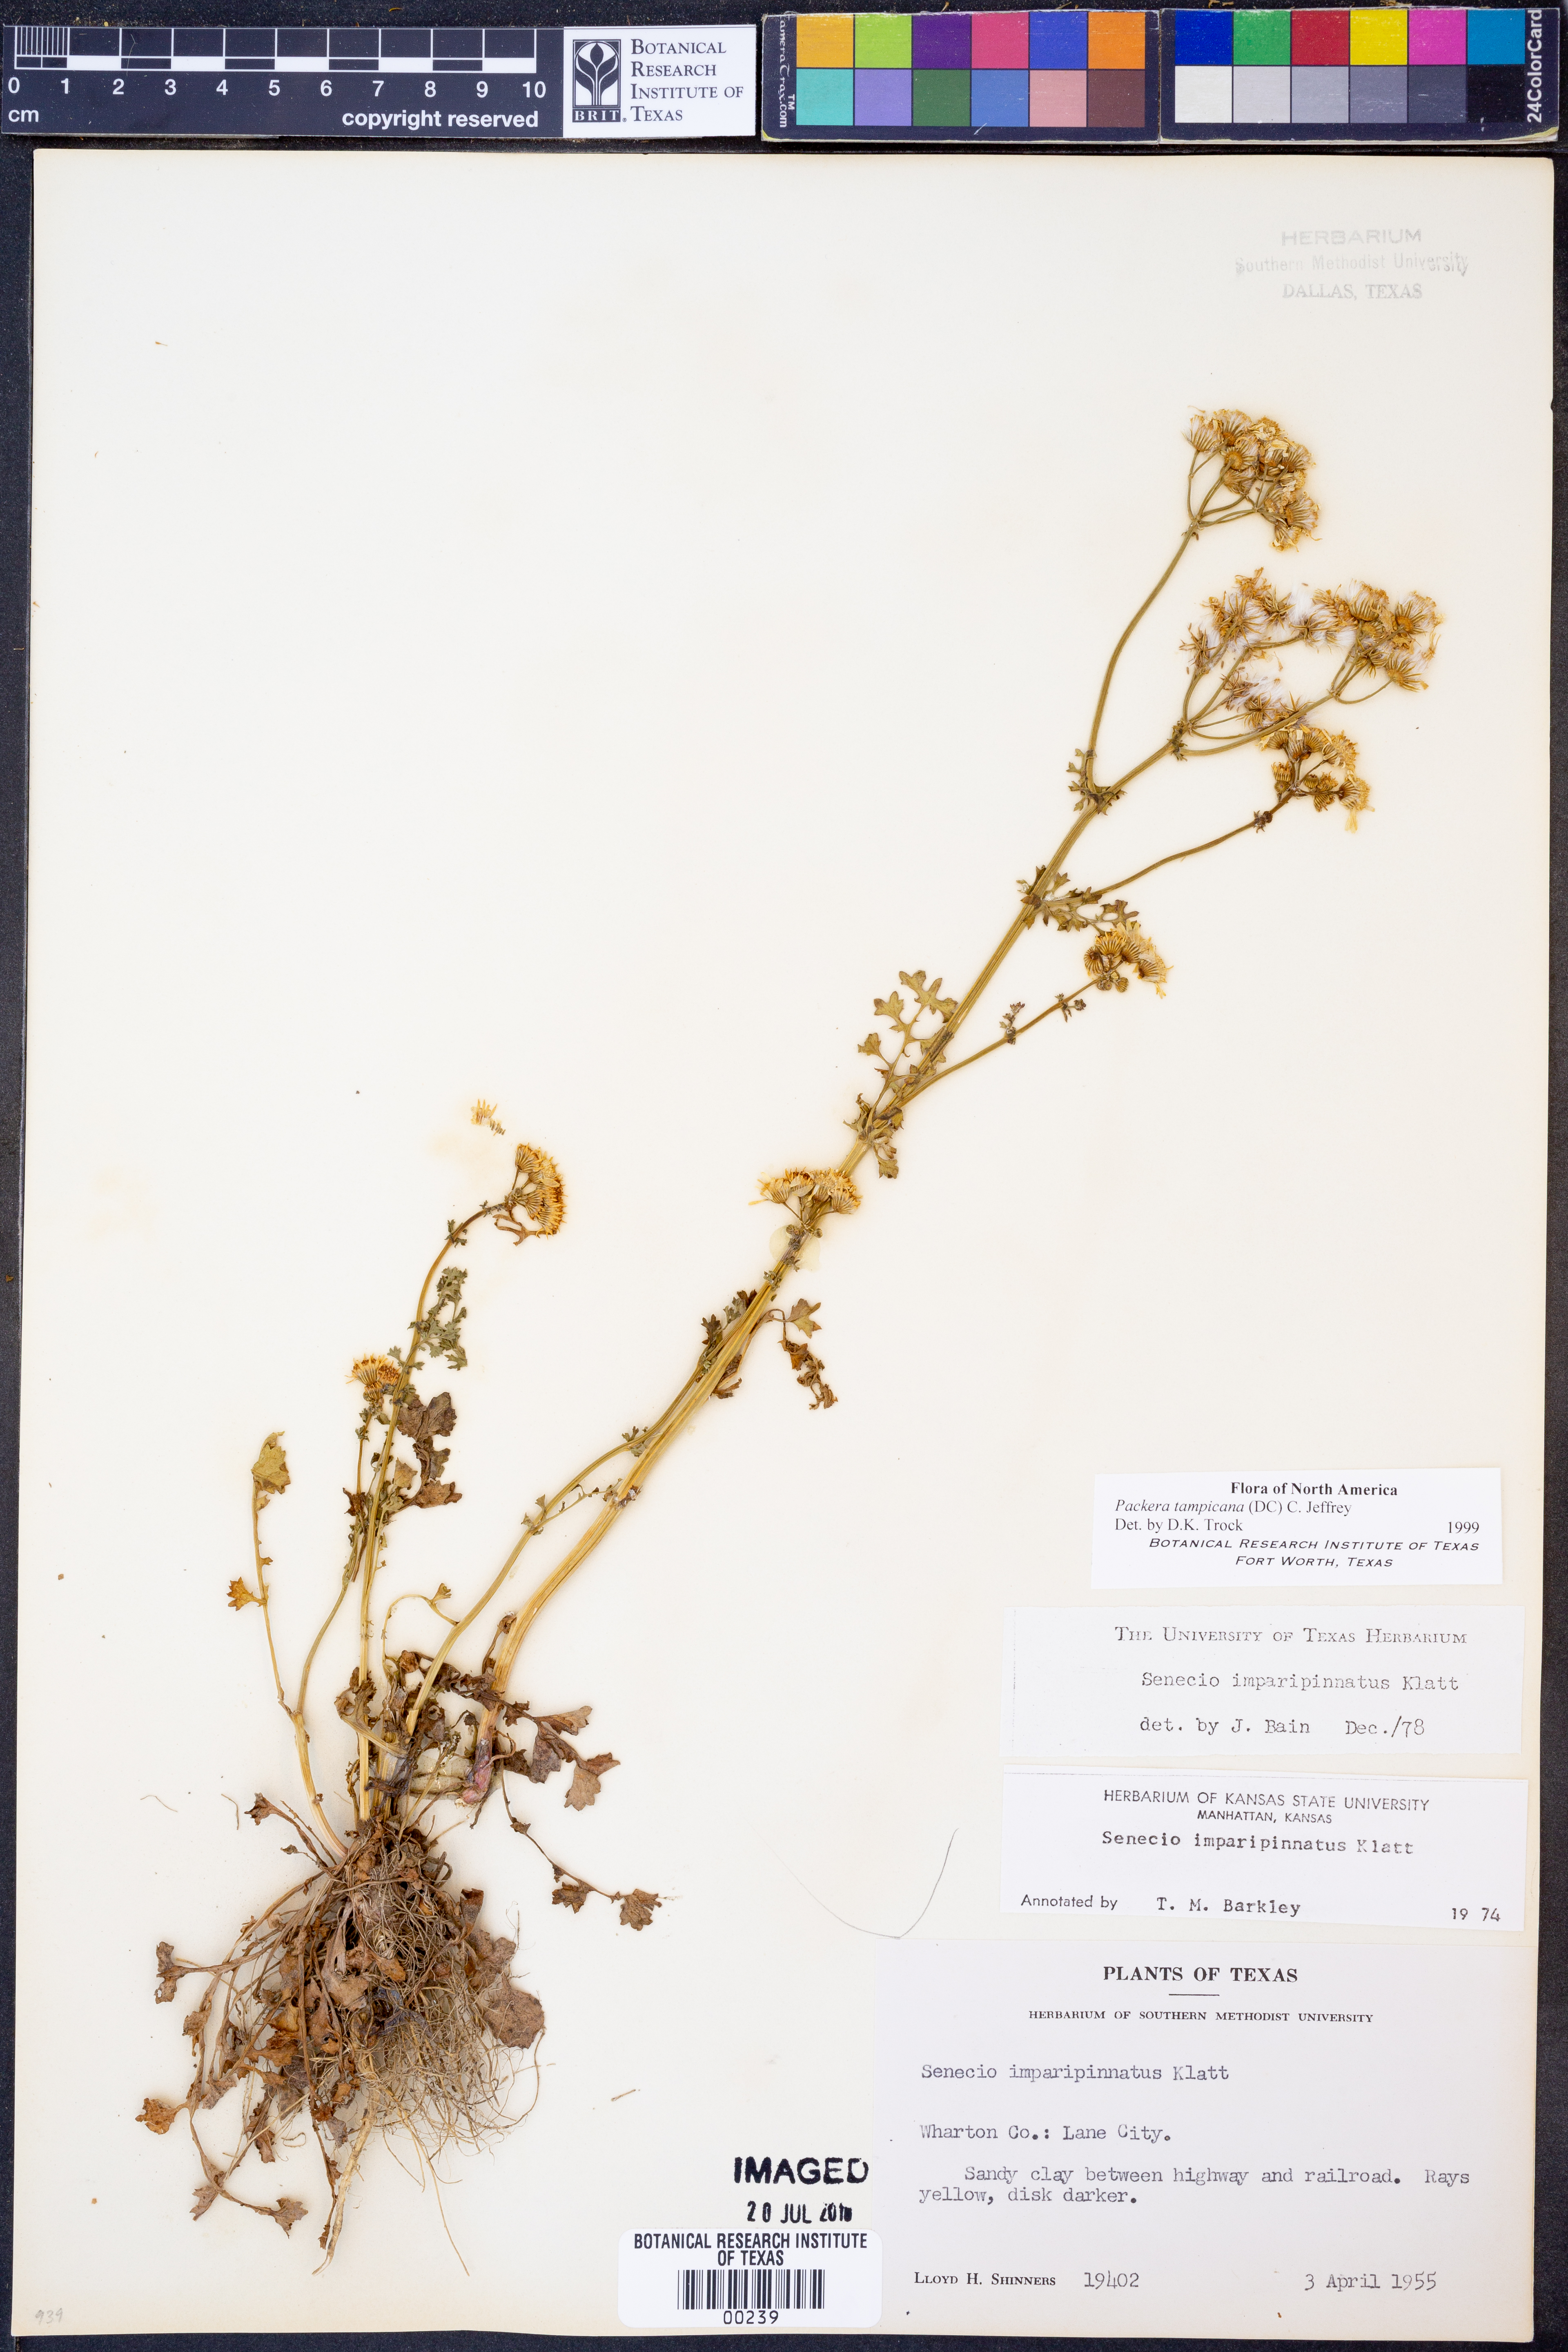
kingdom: Plantae
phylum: Tracheophyta
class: Magnoliopsida
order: Asterales
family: Asteraceae
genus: Packera
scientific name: Packera tampicana
